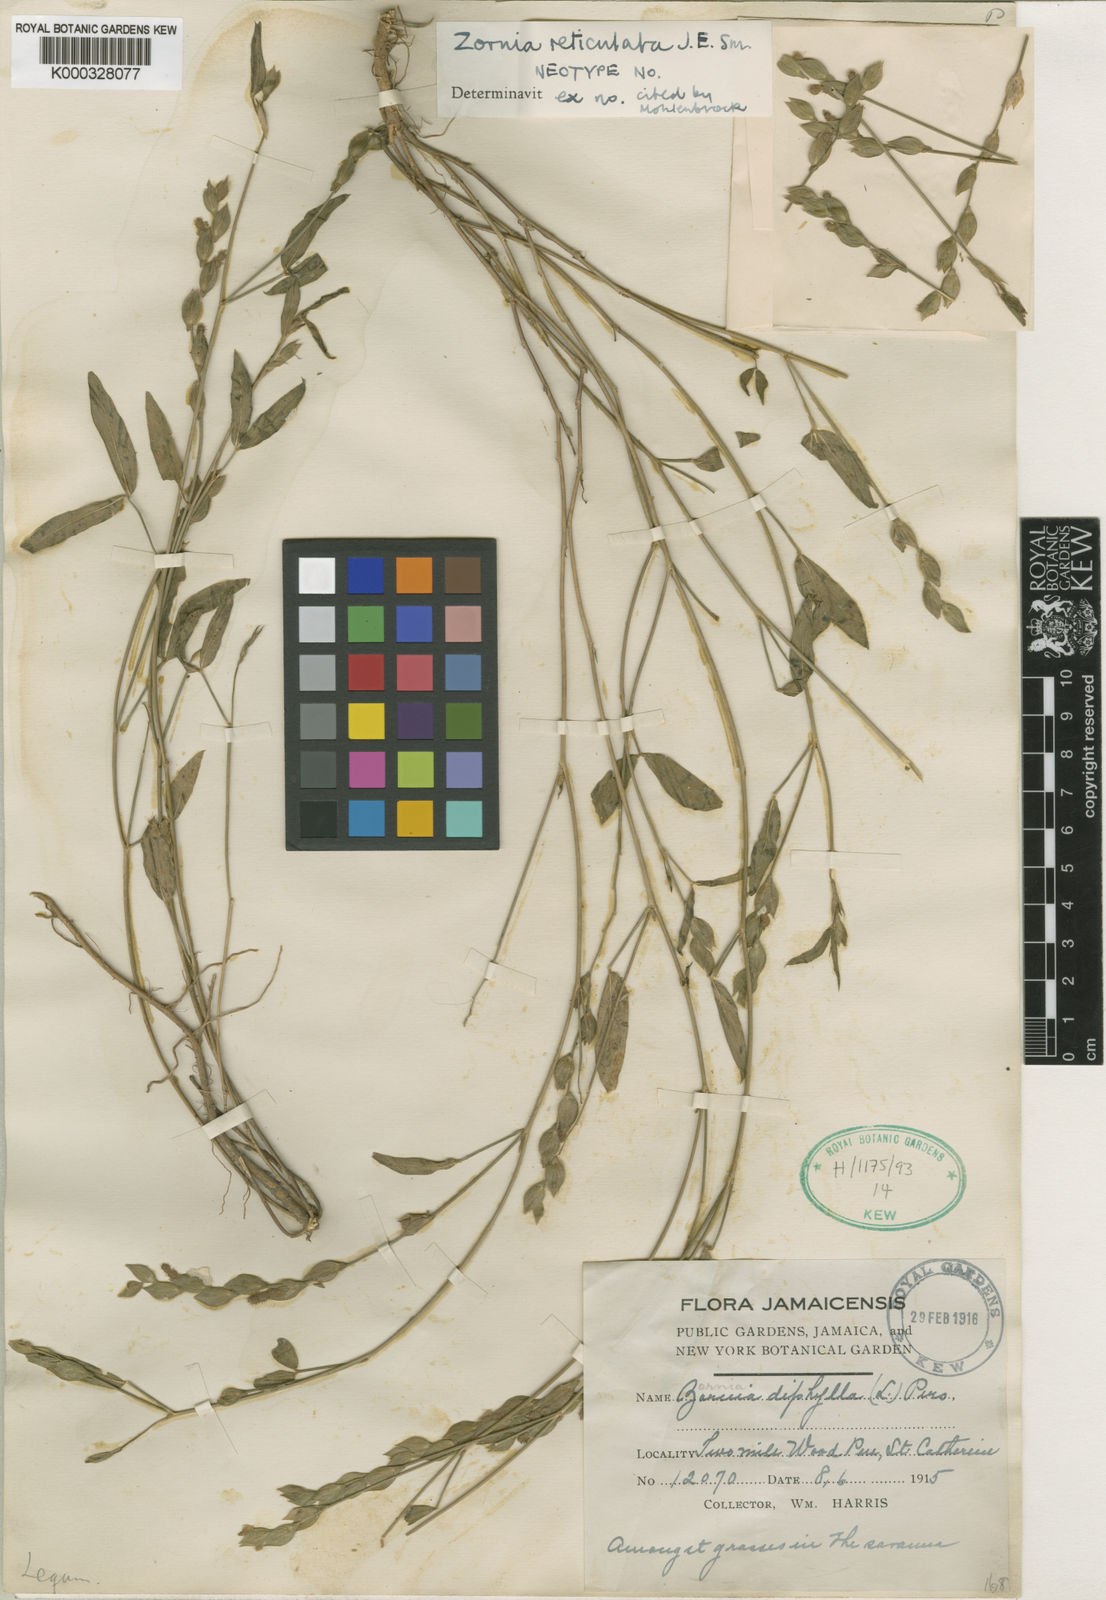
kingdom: Plantae
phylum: Tracheophyta
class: Magnoliopsida
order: Fabales
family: Fabaceae
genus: Zornia
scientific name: Zornia reticulata
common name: Reticulate viperina
